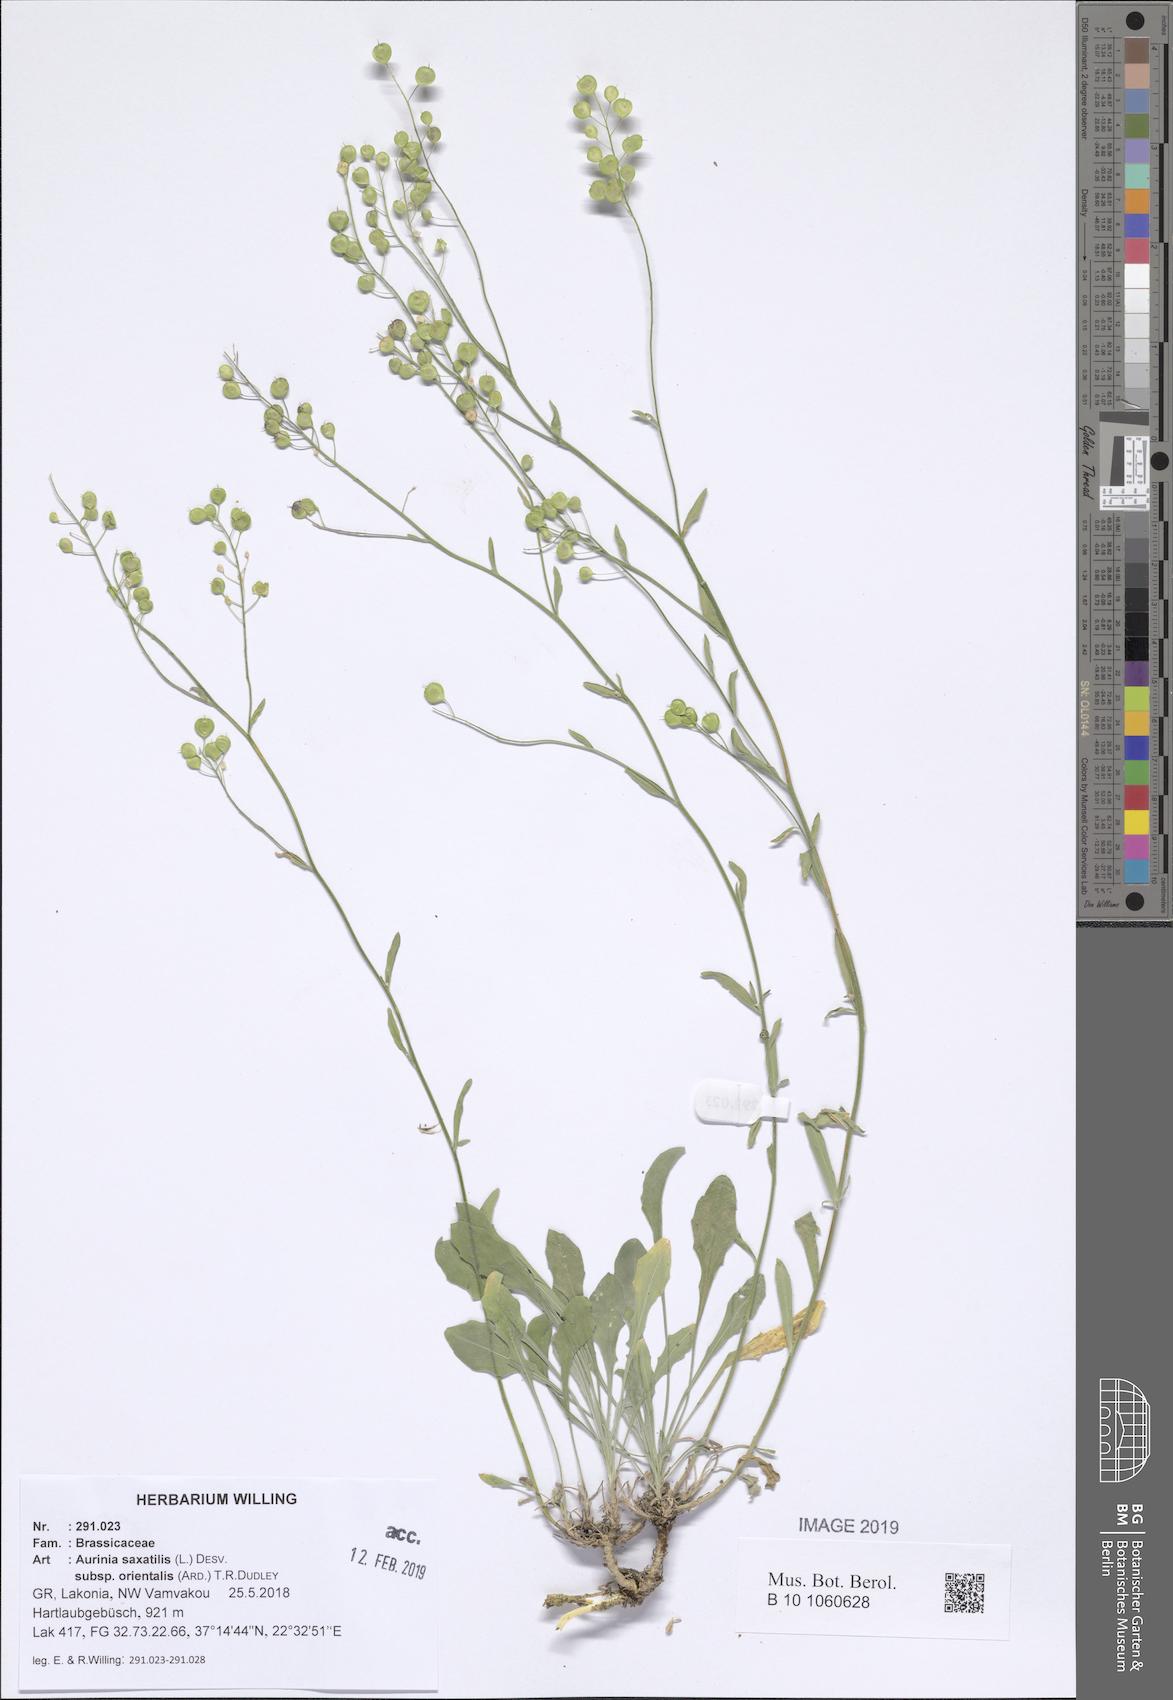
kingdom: Plantae
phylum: Tracheophyta
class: Magnoliopsida
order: Brassicales
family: Brassicaceae
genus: Aurinia
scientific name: Aurinia saxatilis
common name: Golden-tuft alyssum
